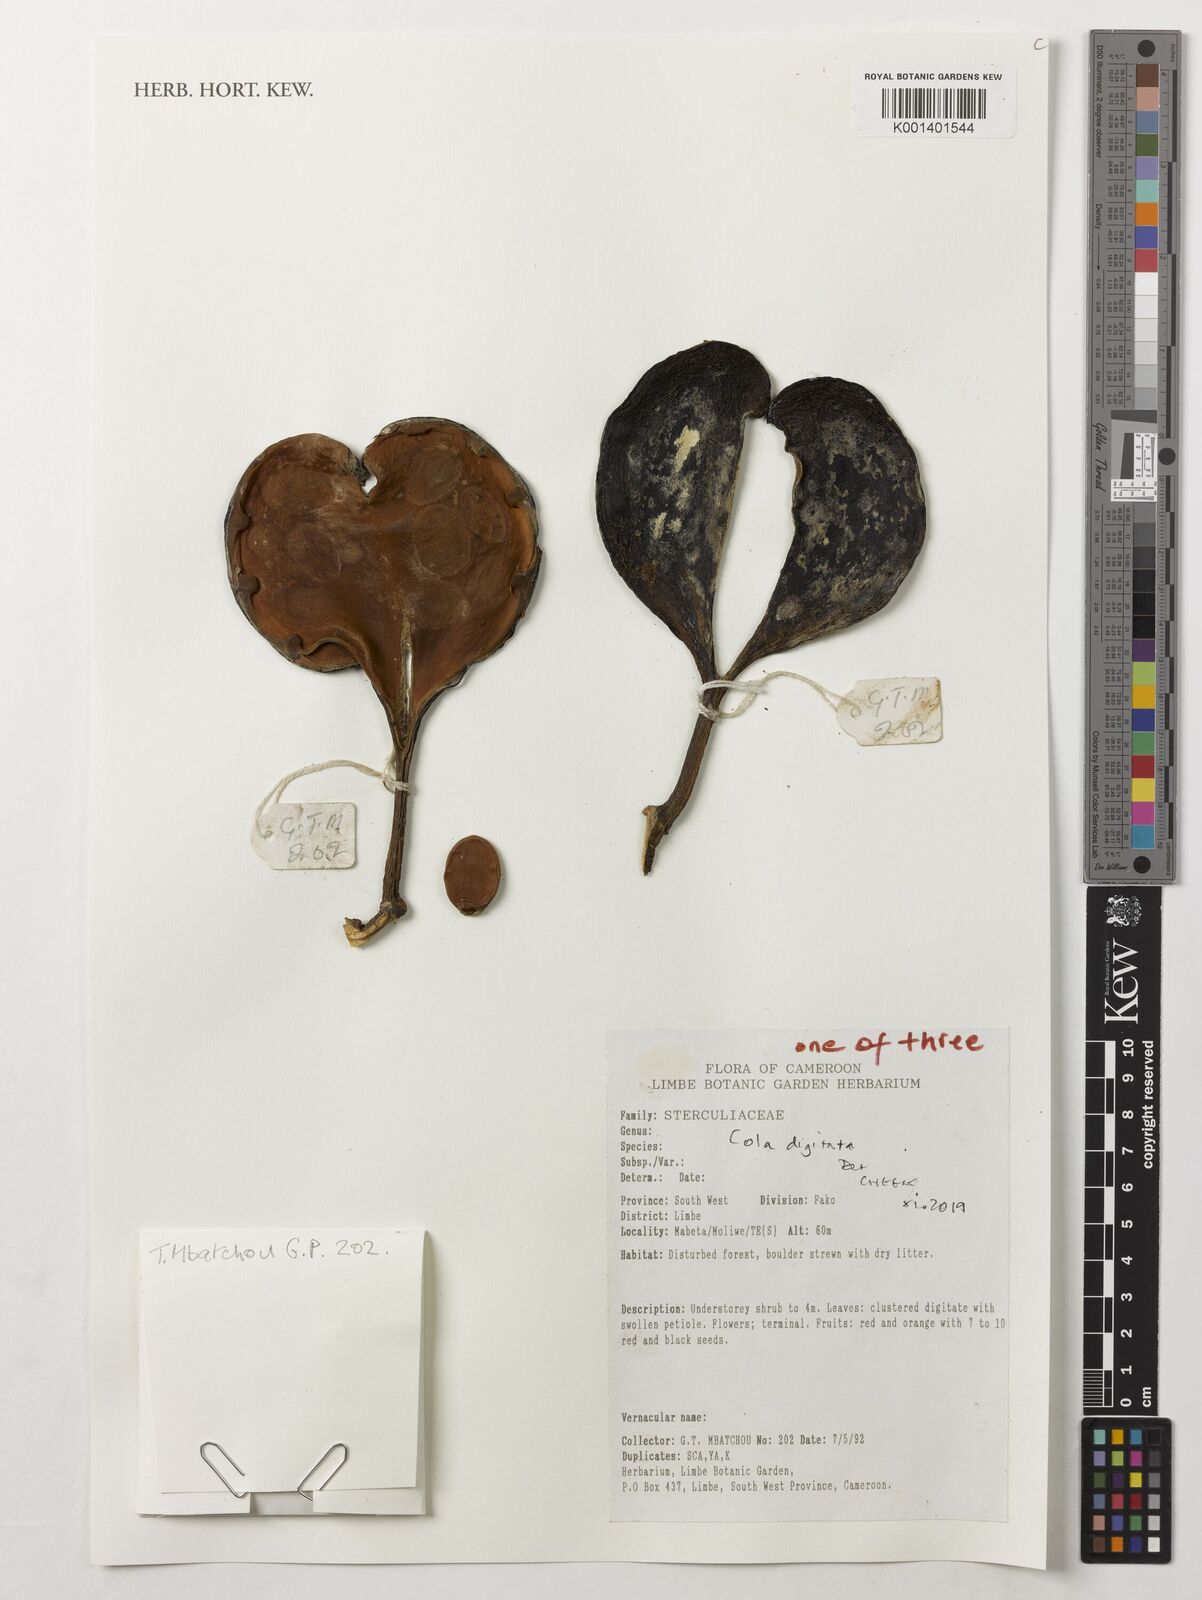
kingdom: Plantae
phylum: Tracheophyta
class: Magnoliopsida
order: Malvales
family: Malvaceae
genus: Cola
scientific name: Cola digitata
